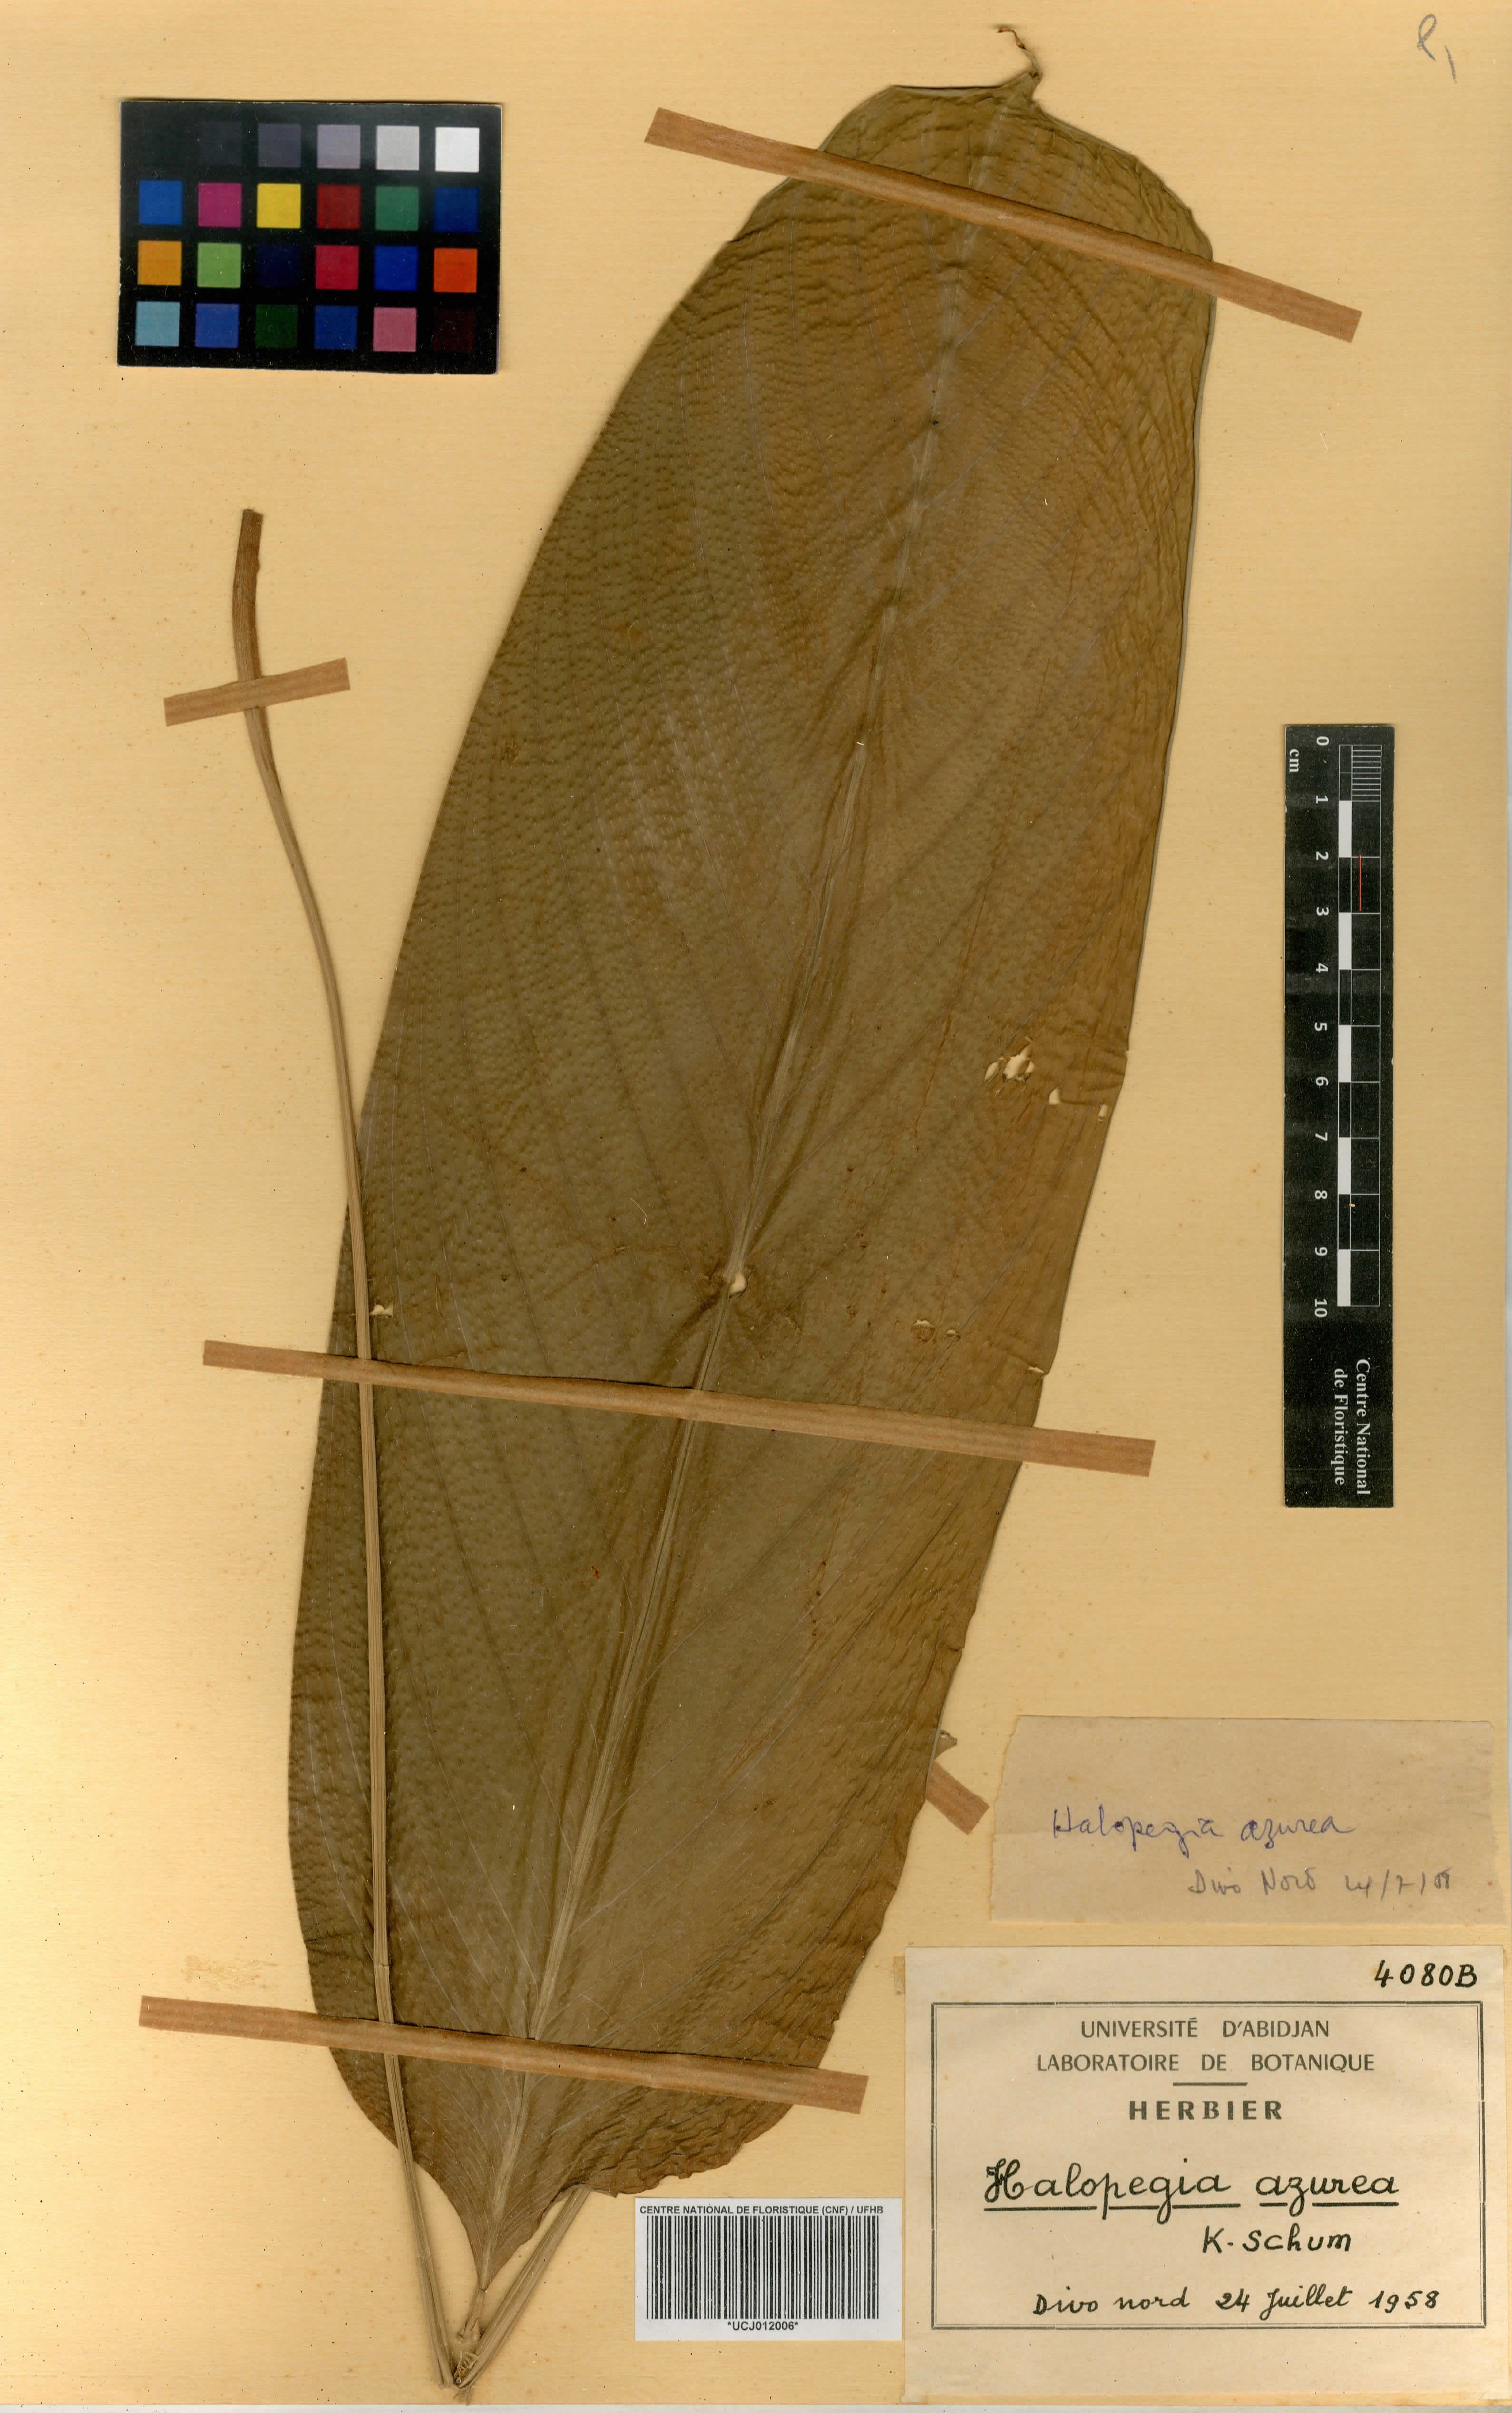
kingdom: Plantae
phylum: Tracheophyta
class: Liliopsida
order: Zingiberales
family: Marantaceae
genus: Halopegia
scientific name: Halopegia azurea
